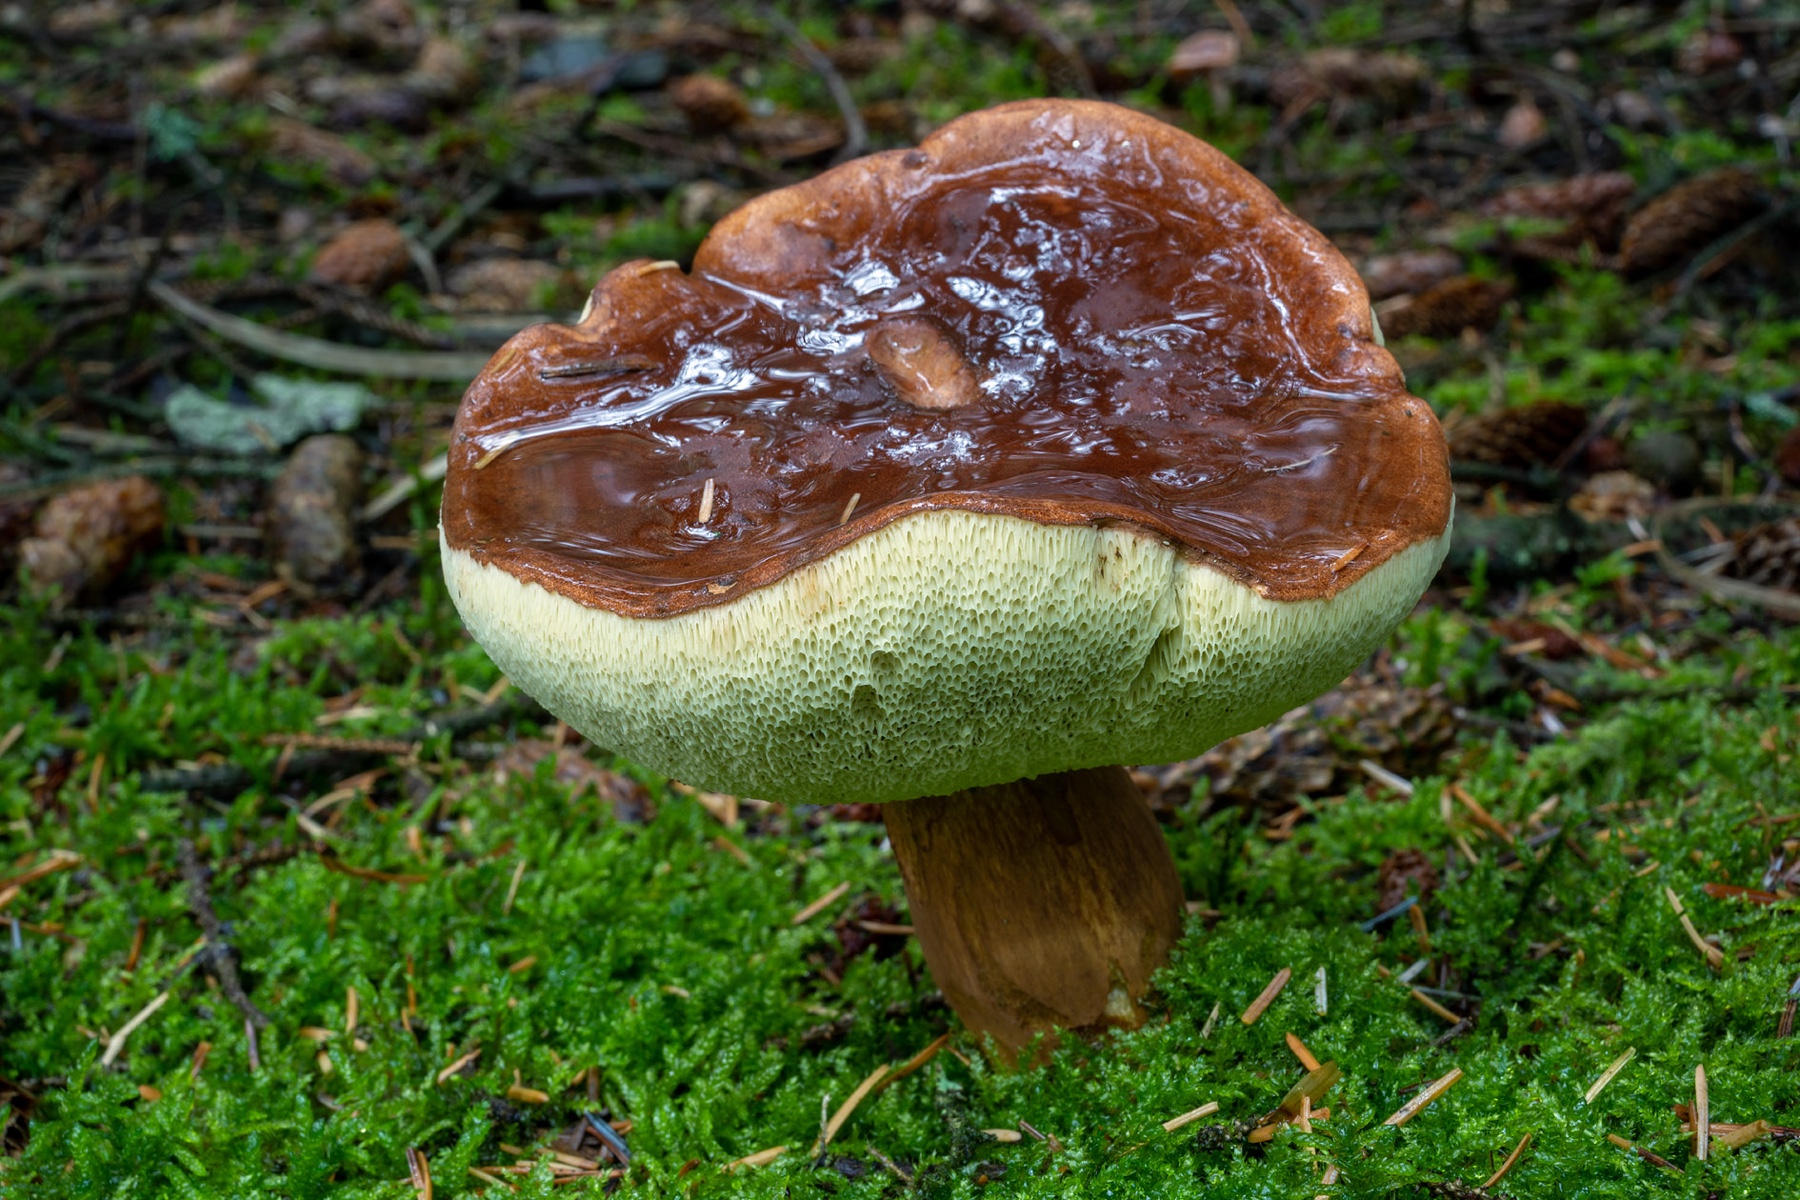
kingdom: Fungi
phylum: Basidiomycota
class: Agaricomycetes
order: Boletales
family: Boletaceae
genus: Imleria
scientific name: Imleria badia
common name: brunstokket rørhat
